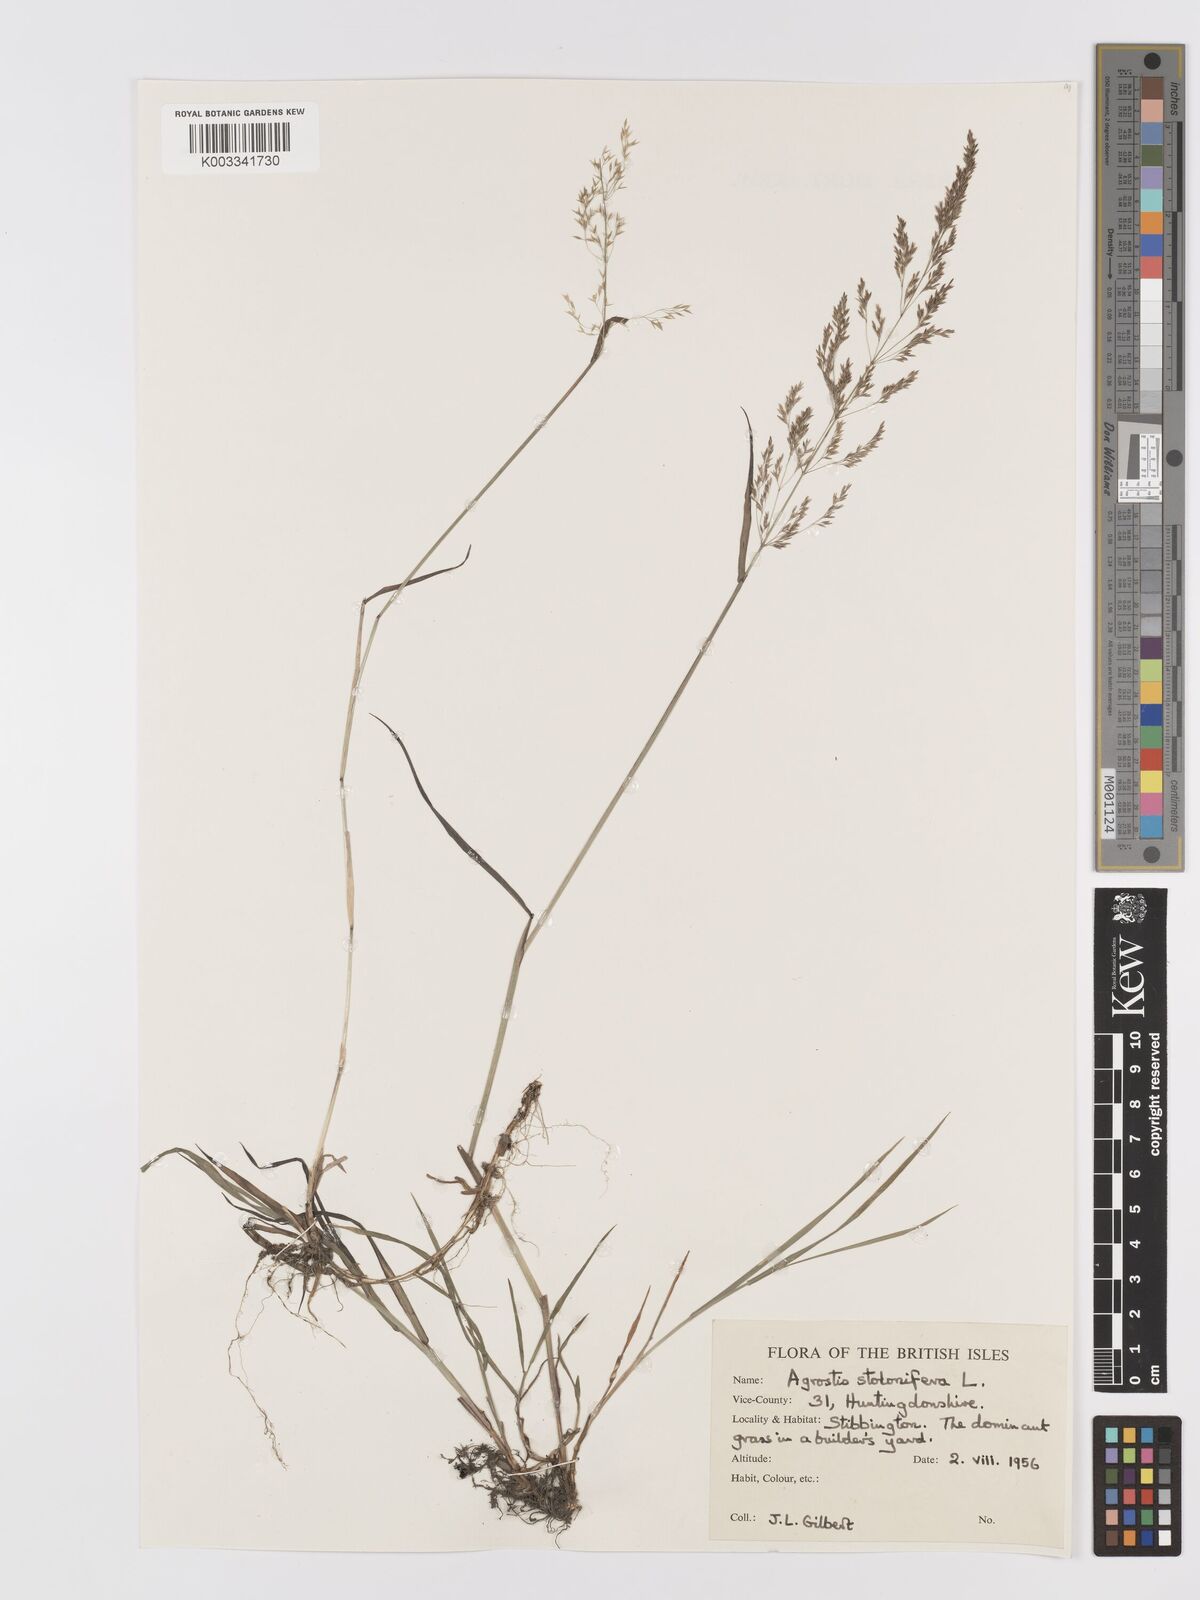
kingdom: Plantae
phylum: Tracheophyta
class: Liliopsida
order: Poales
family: Poaceae
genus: Agrostis
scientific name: Agrostis stolonifera
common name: Creeping bentgrass
